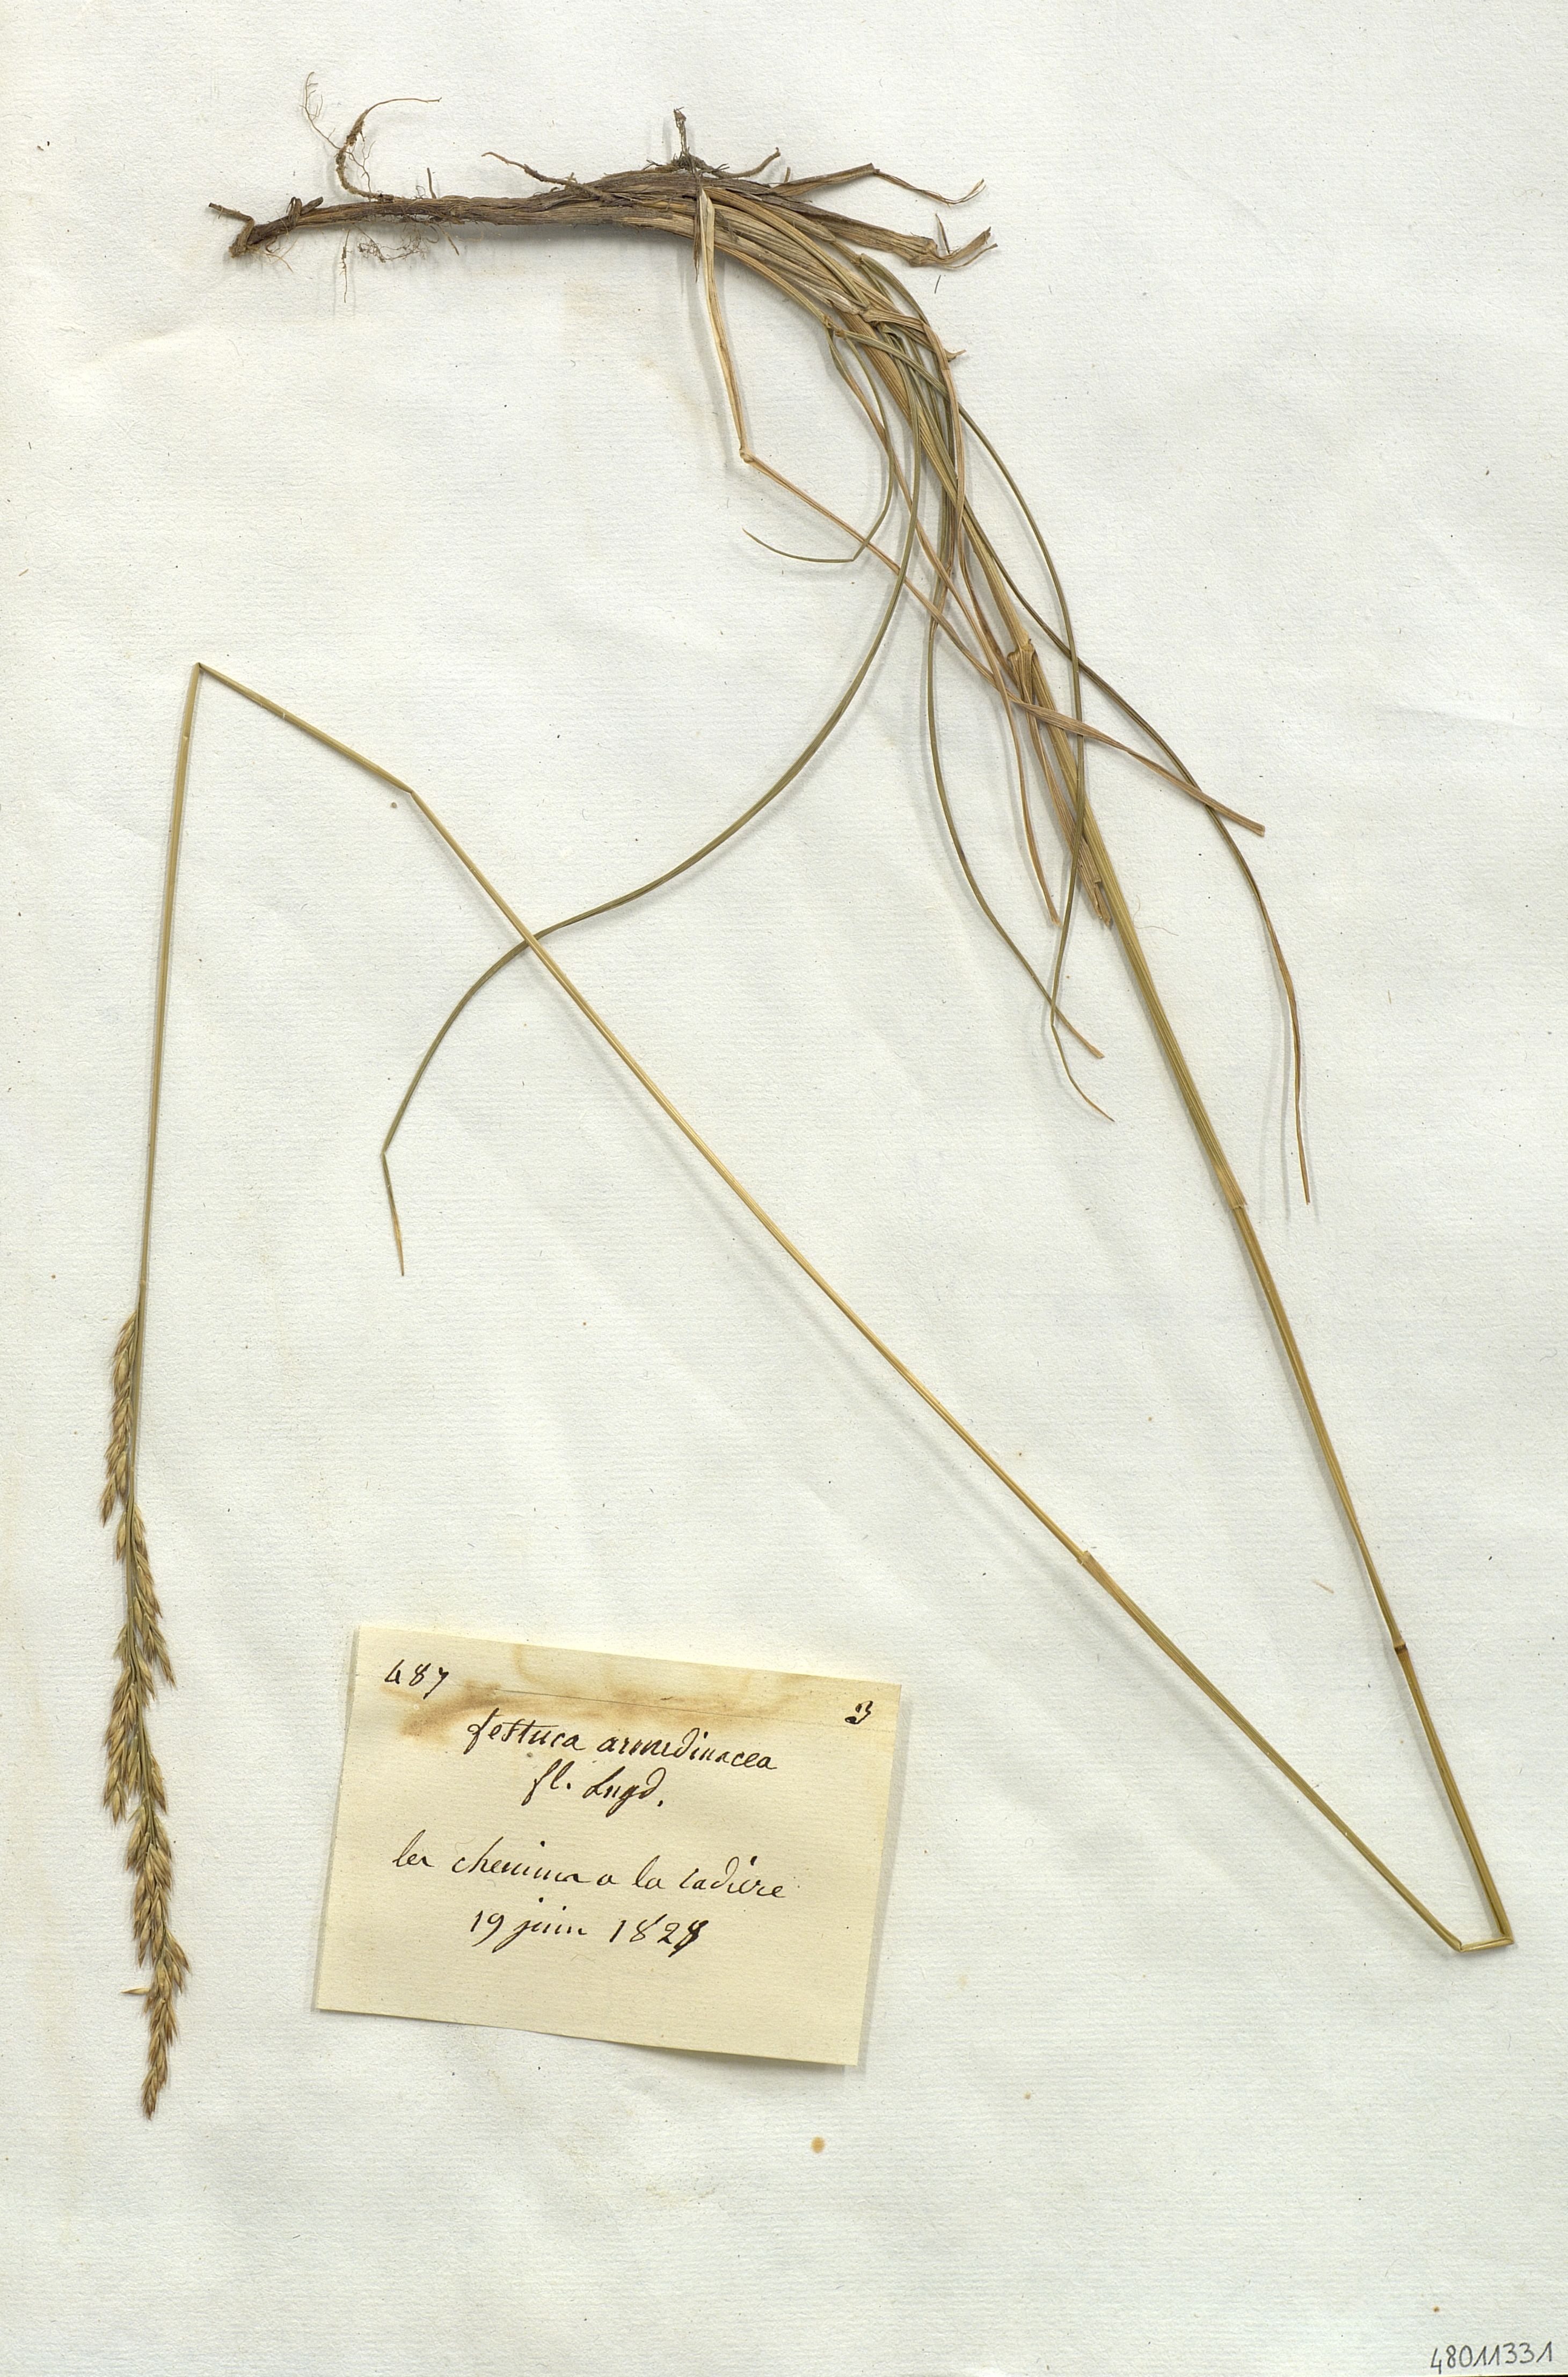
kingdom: Plantae
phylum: Tracheophyta
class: Liliopsida
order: Poales
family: Poaceae
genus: Festuca
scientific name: Festuca rubra
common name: Red fescue
